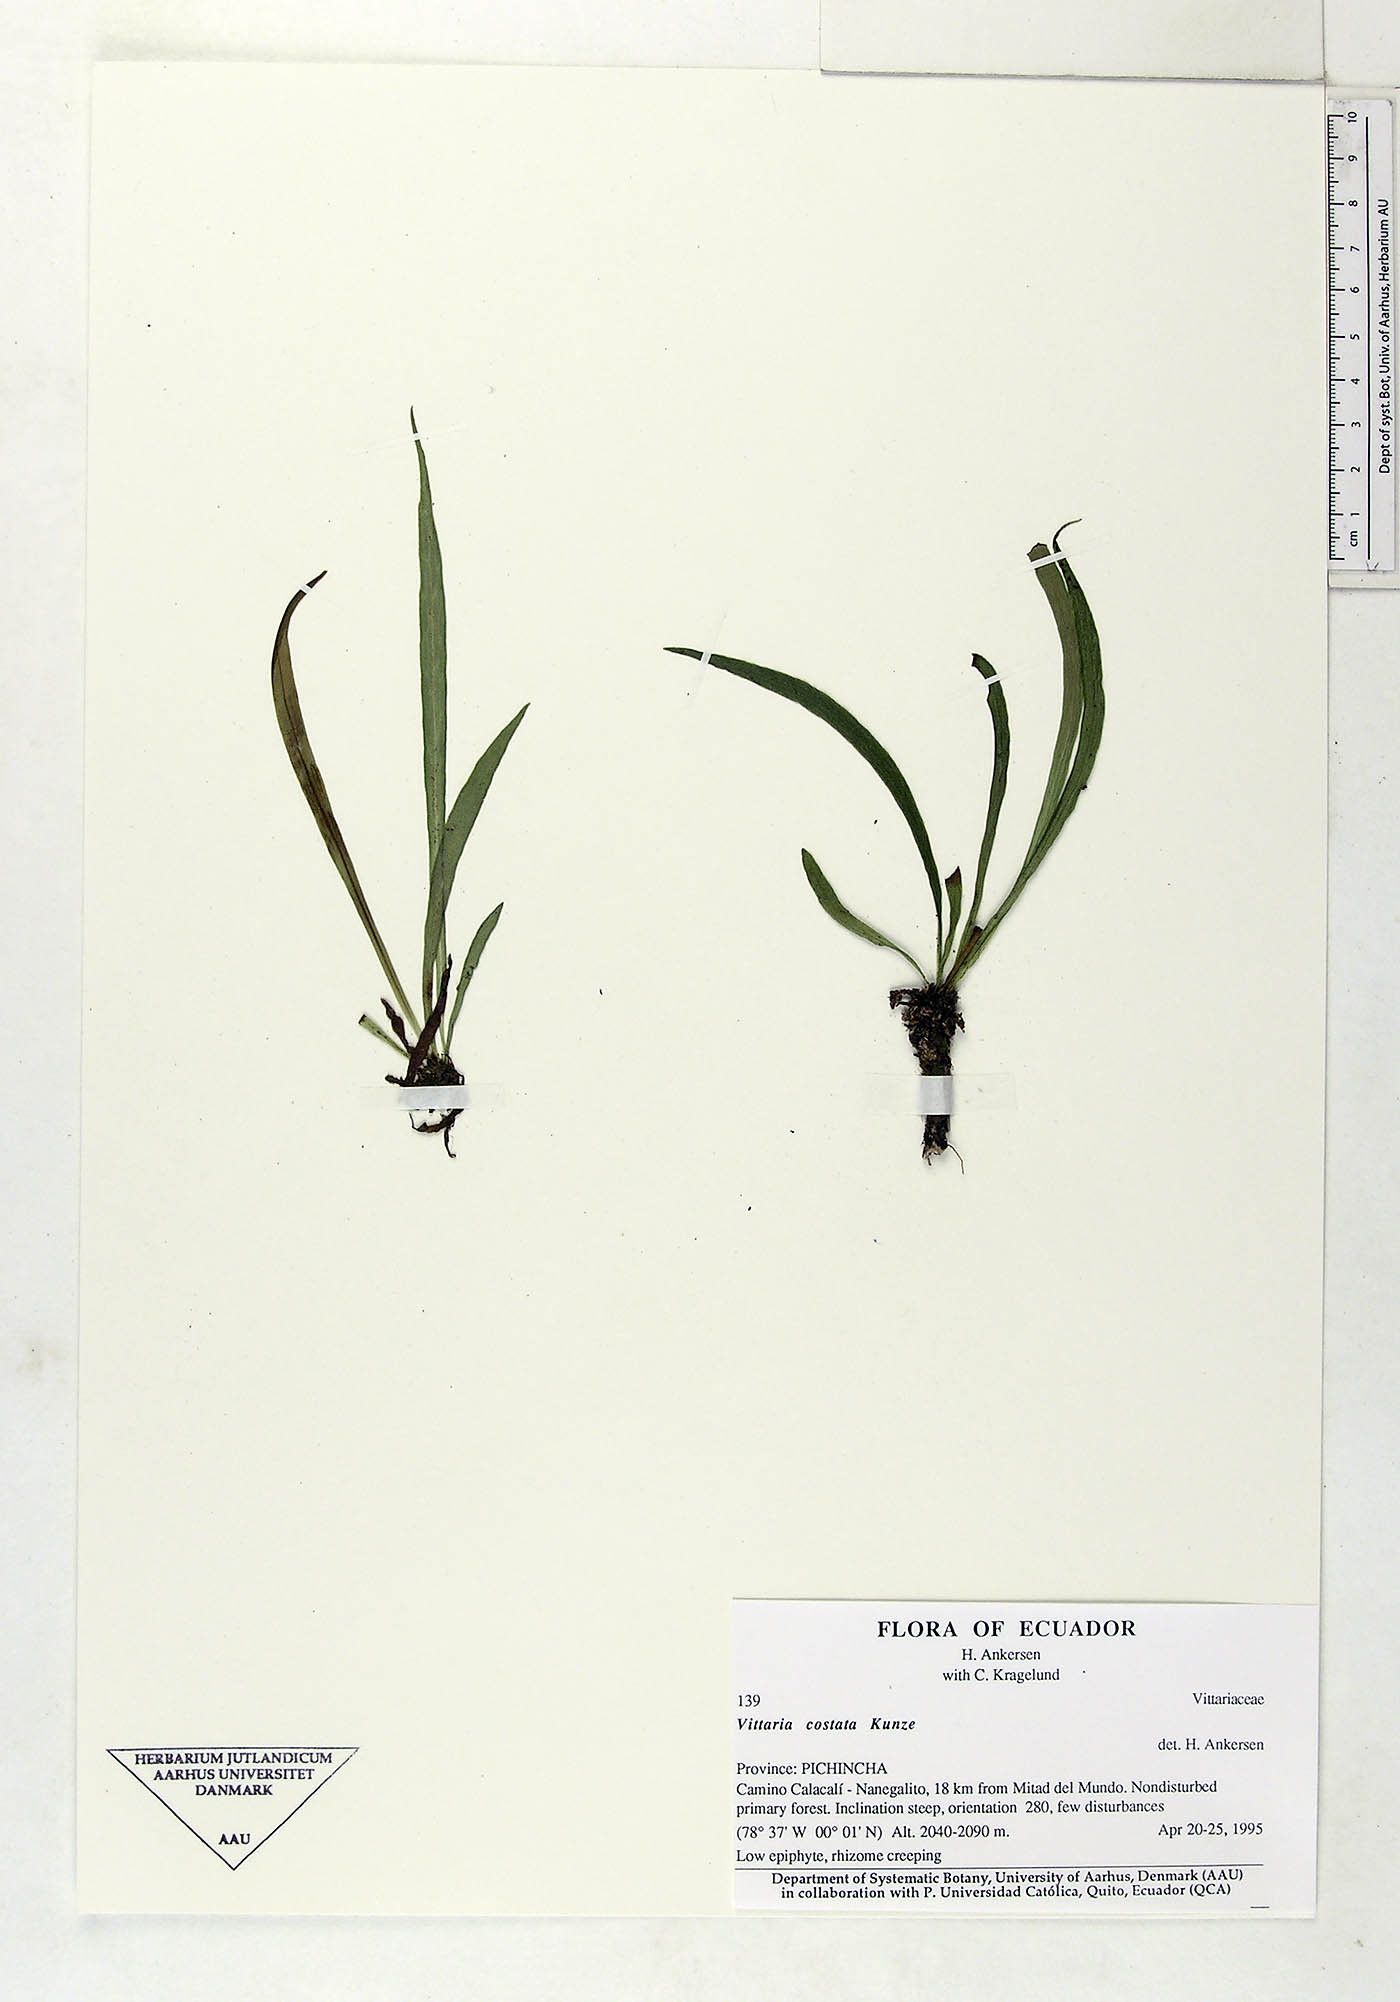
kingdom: Plantae
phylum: Tracheophyta
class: Polypodiopsida
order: Polypodiales
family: Pteridaceae
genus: Ananthacorus
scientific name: Ananthacorus angustifolius
